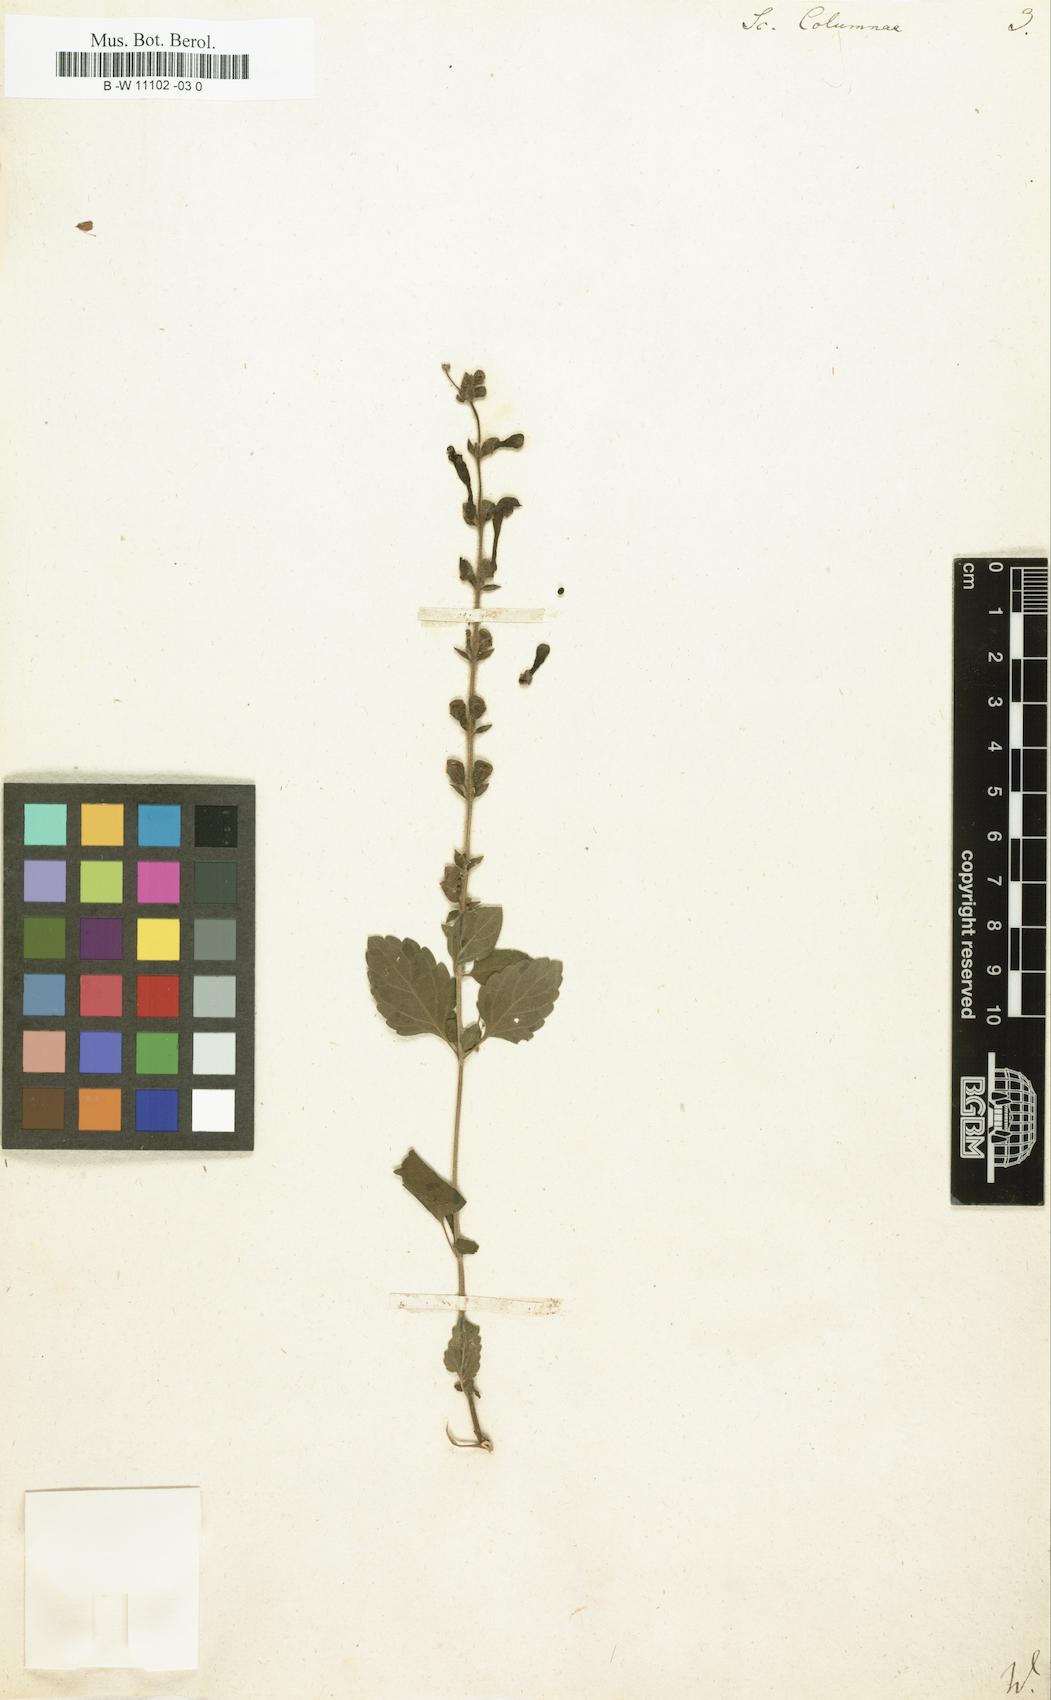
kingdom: Plantae
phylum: Tracheophyta
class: Magnoliopsida
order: Lamiales
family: Lamiaceae
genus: Scutellaria
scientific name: Scutellaria columnae
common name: Large skullcap
